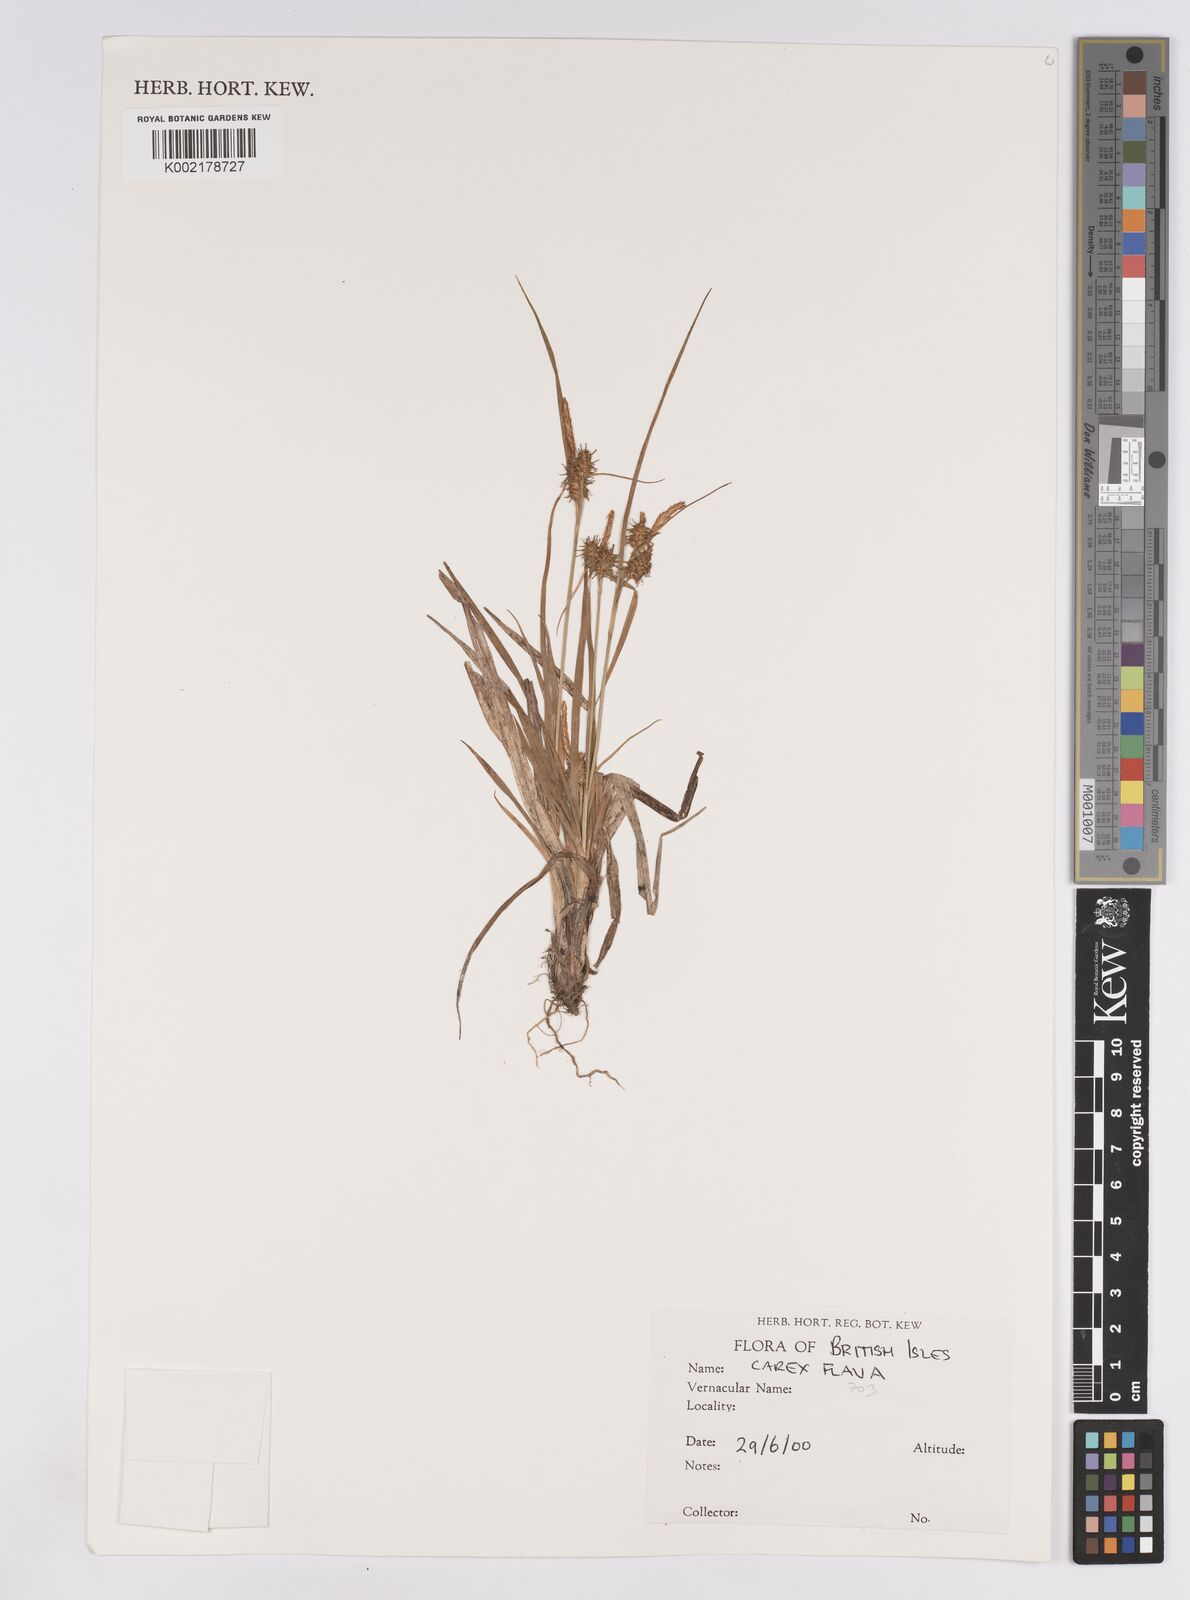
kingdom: Plantae
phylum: Tracheophyta
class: Liliopsida
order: Poales
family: Cyperaceae
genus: Carex
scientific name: Carex lepidocarpa
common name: Long-stalked yellow-sedge
